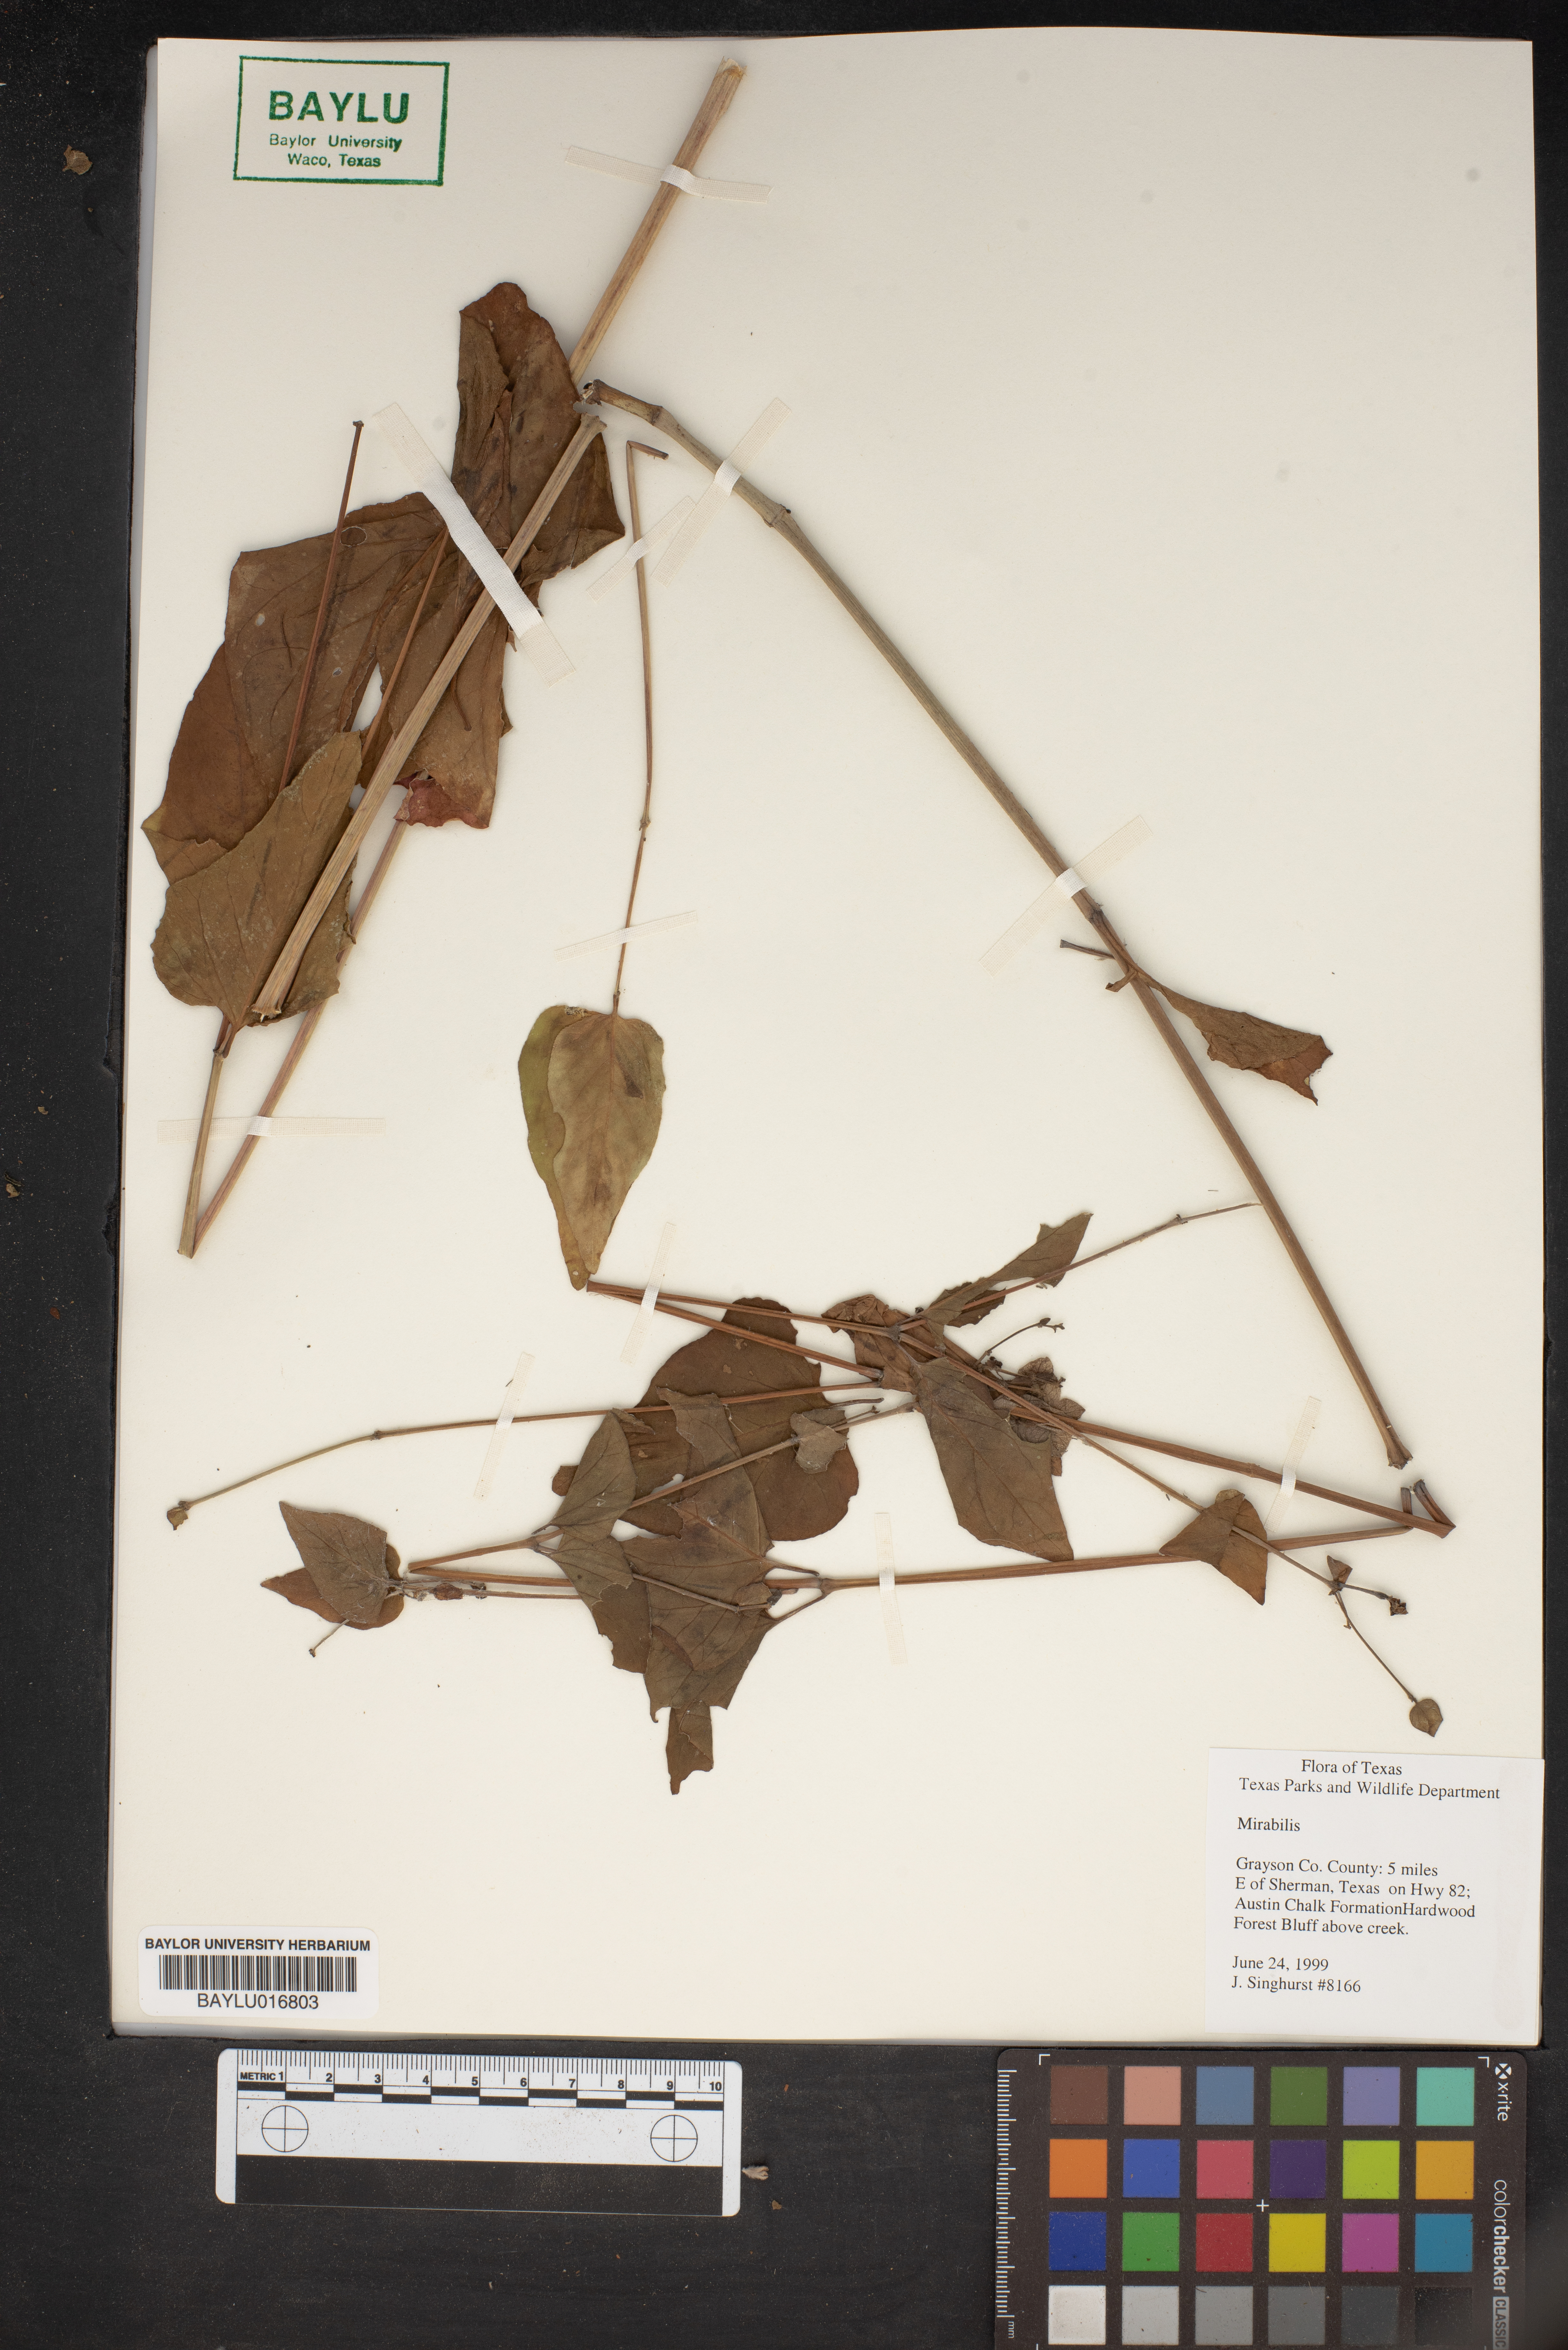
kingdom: Plantae
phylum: Tracheophyta
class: Magnoliopsida
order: Caryophyllales
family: Nyctaginaceae
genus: Mirabilis
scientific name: Mirabilis
